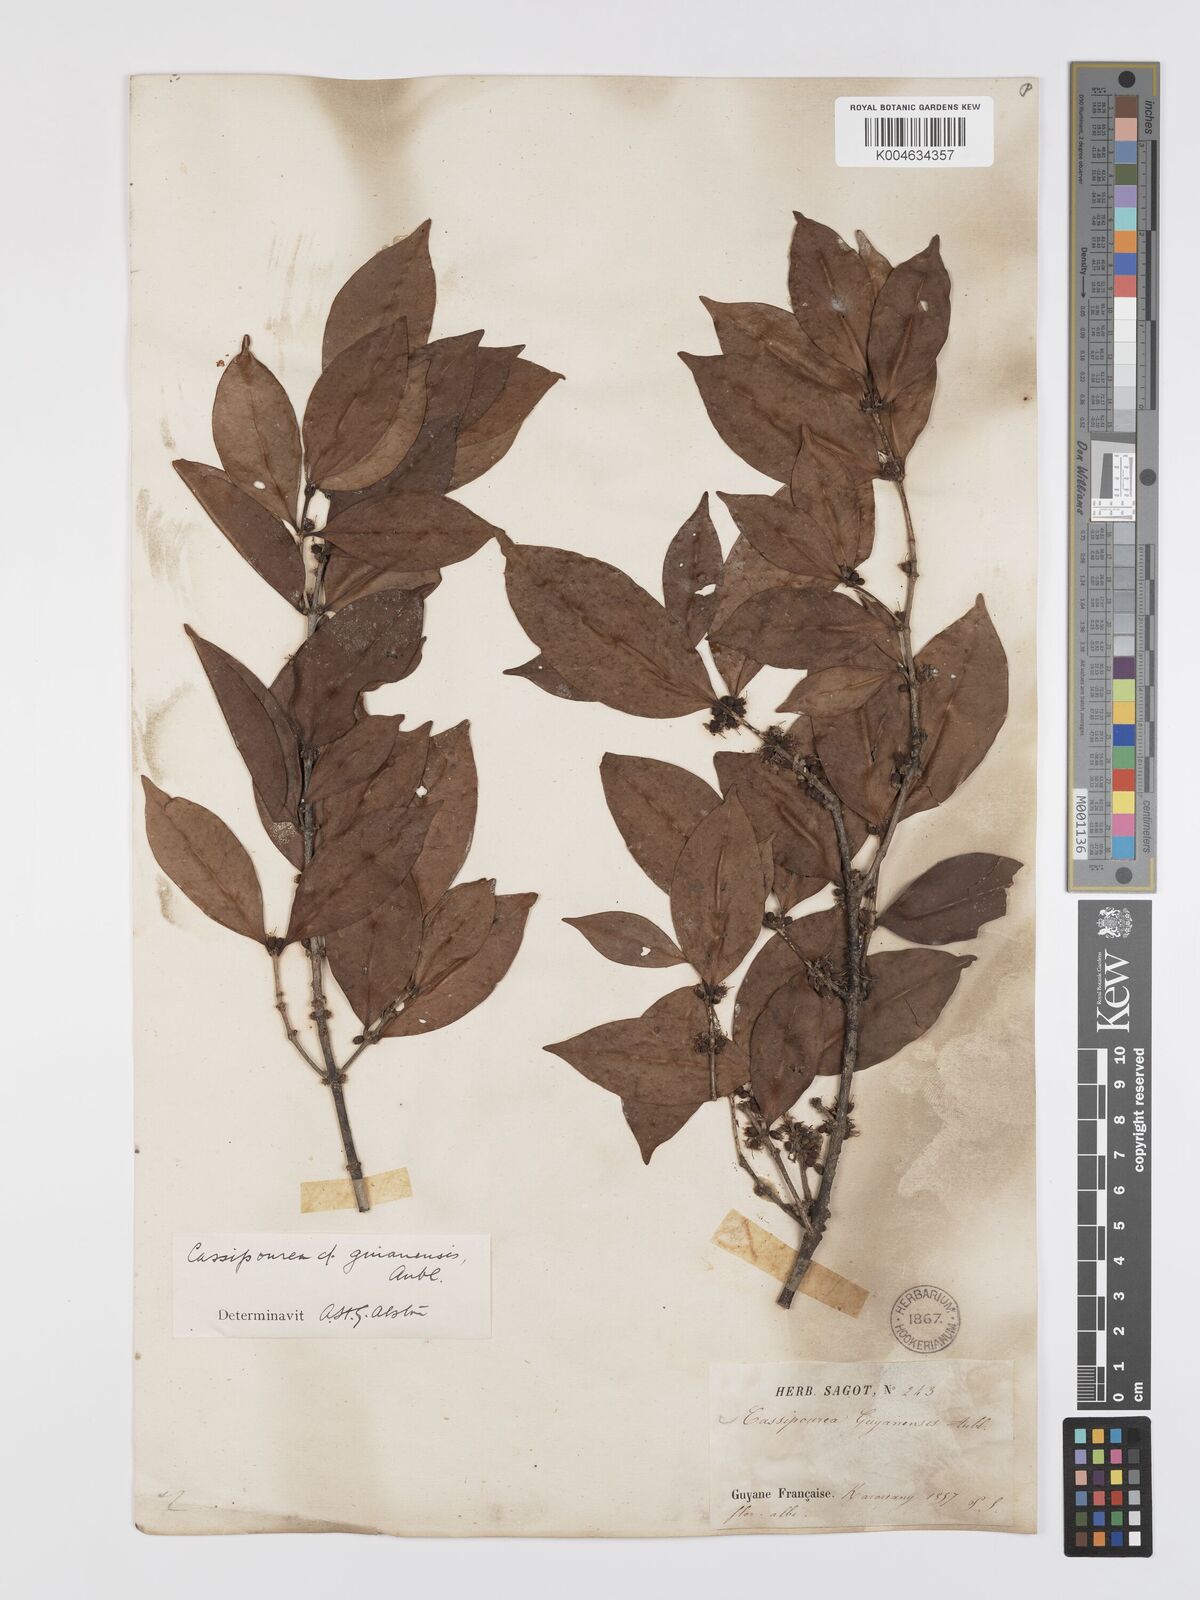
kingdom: Plantae
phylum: Tracheophyta
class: Magnoliopsida
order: Malpighiales
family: Rhizophoraceae
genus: Cassipourea
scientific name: Cassipourea guianensis
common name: Bastard waterwood
